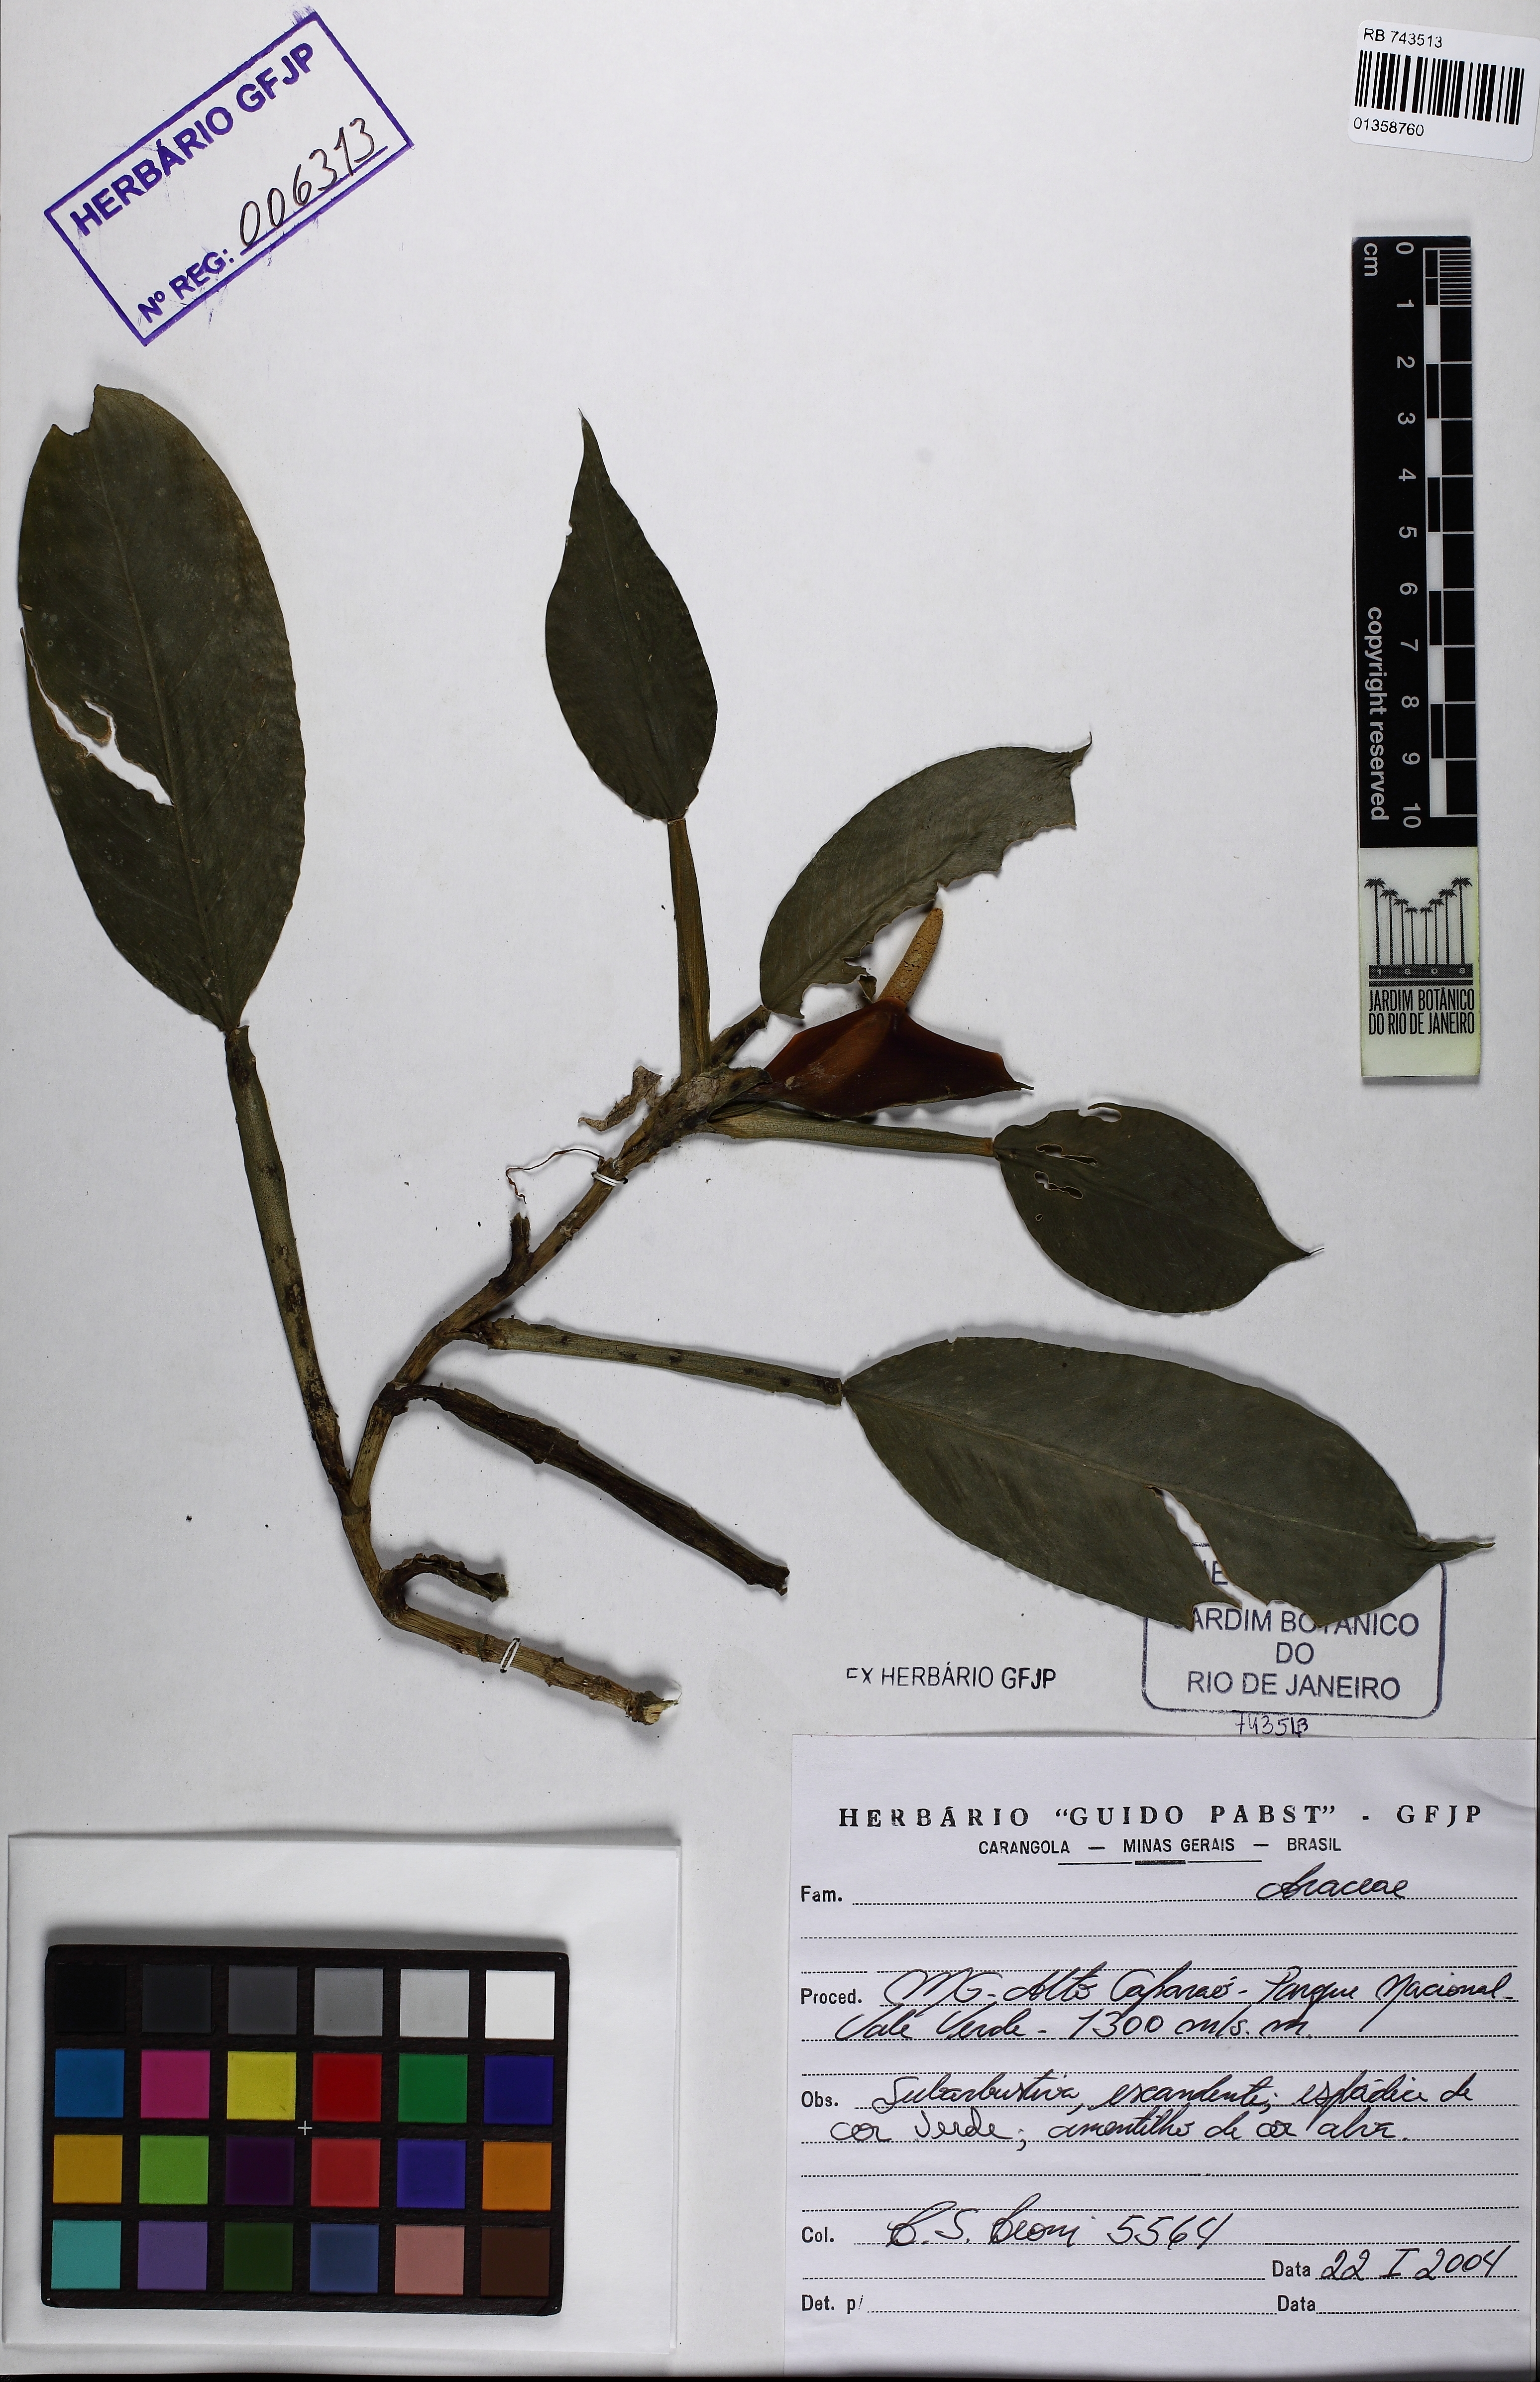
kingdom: Plantae
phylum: Tracheophyta
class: Liliopsida
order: Alismatales
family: Araceae
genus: Philodendron
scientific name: Philodendron propinquum
